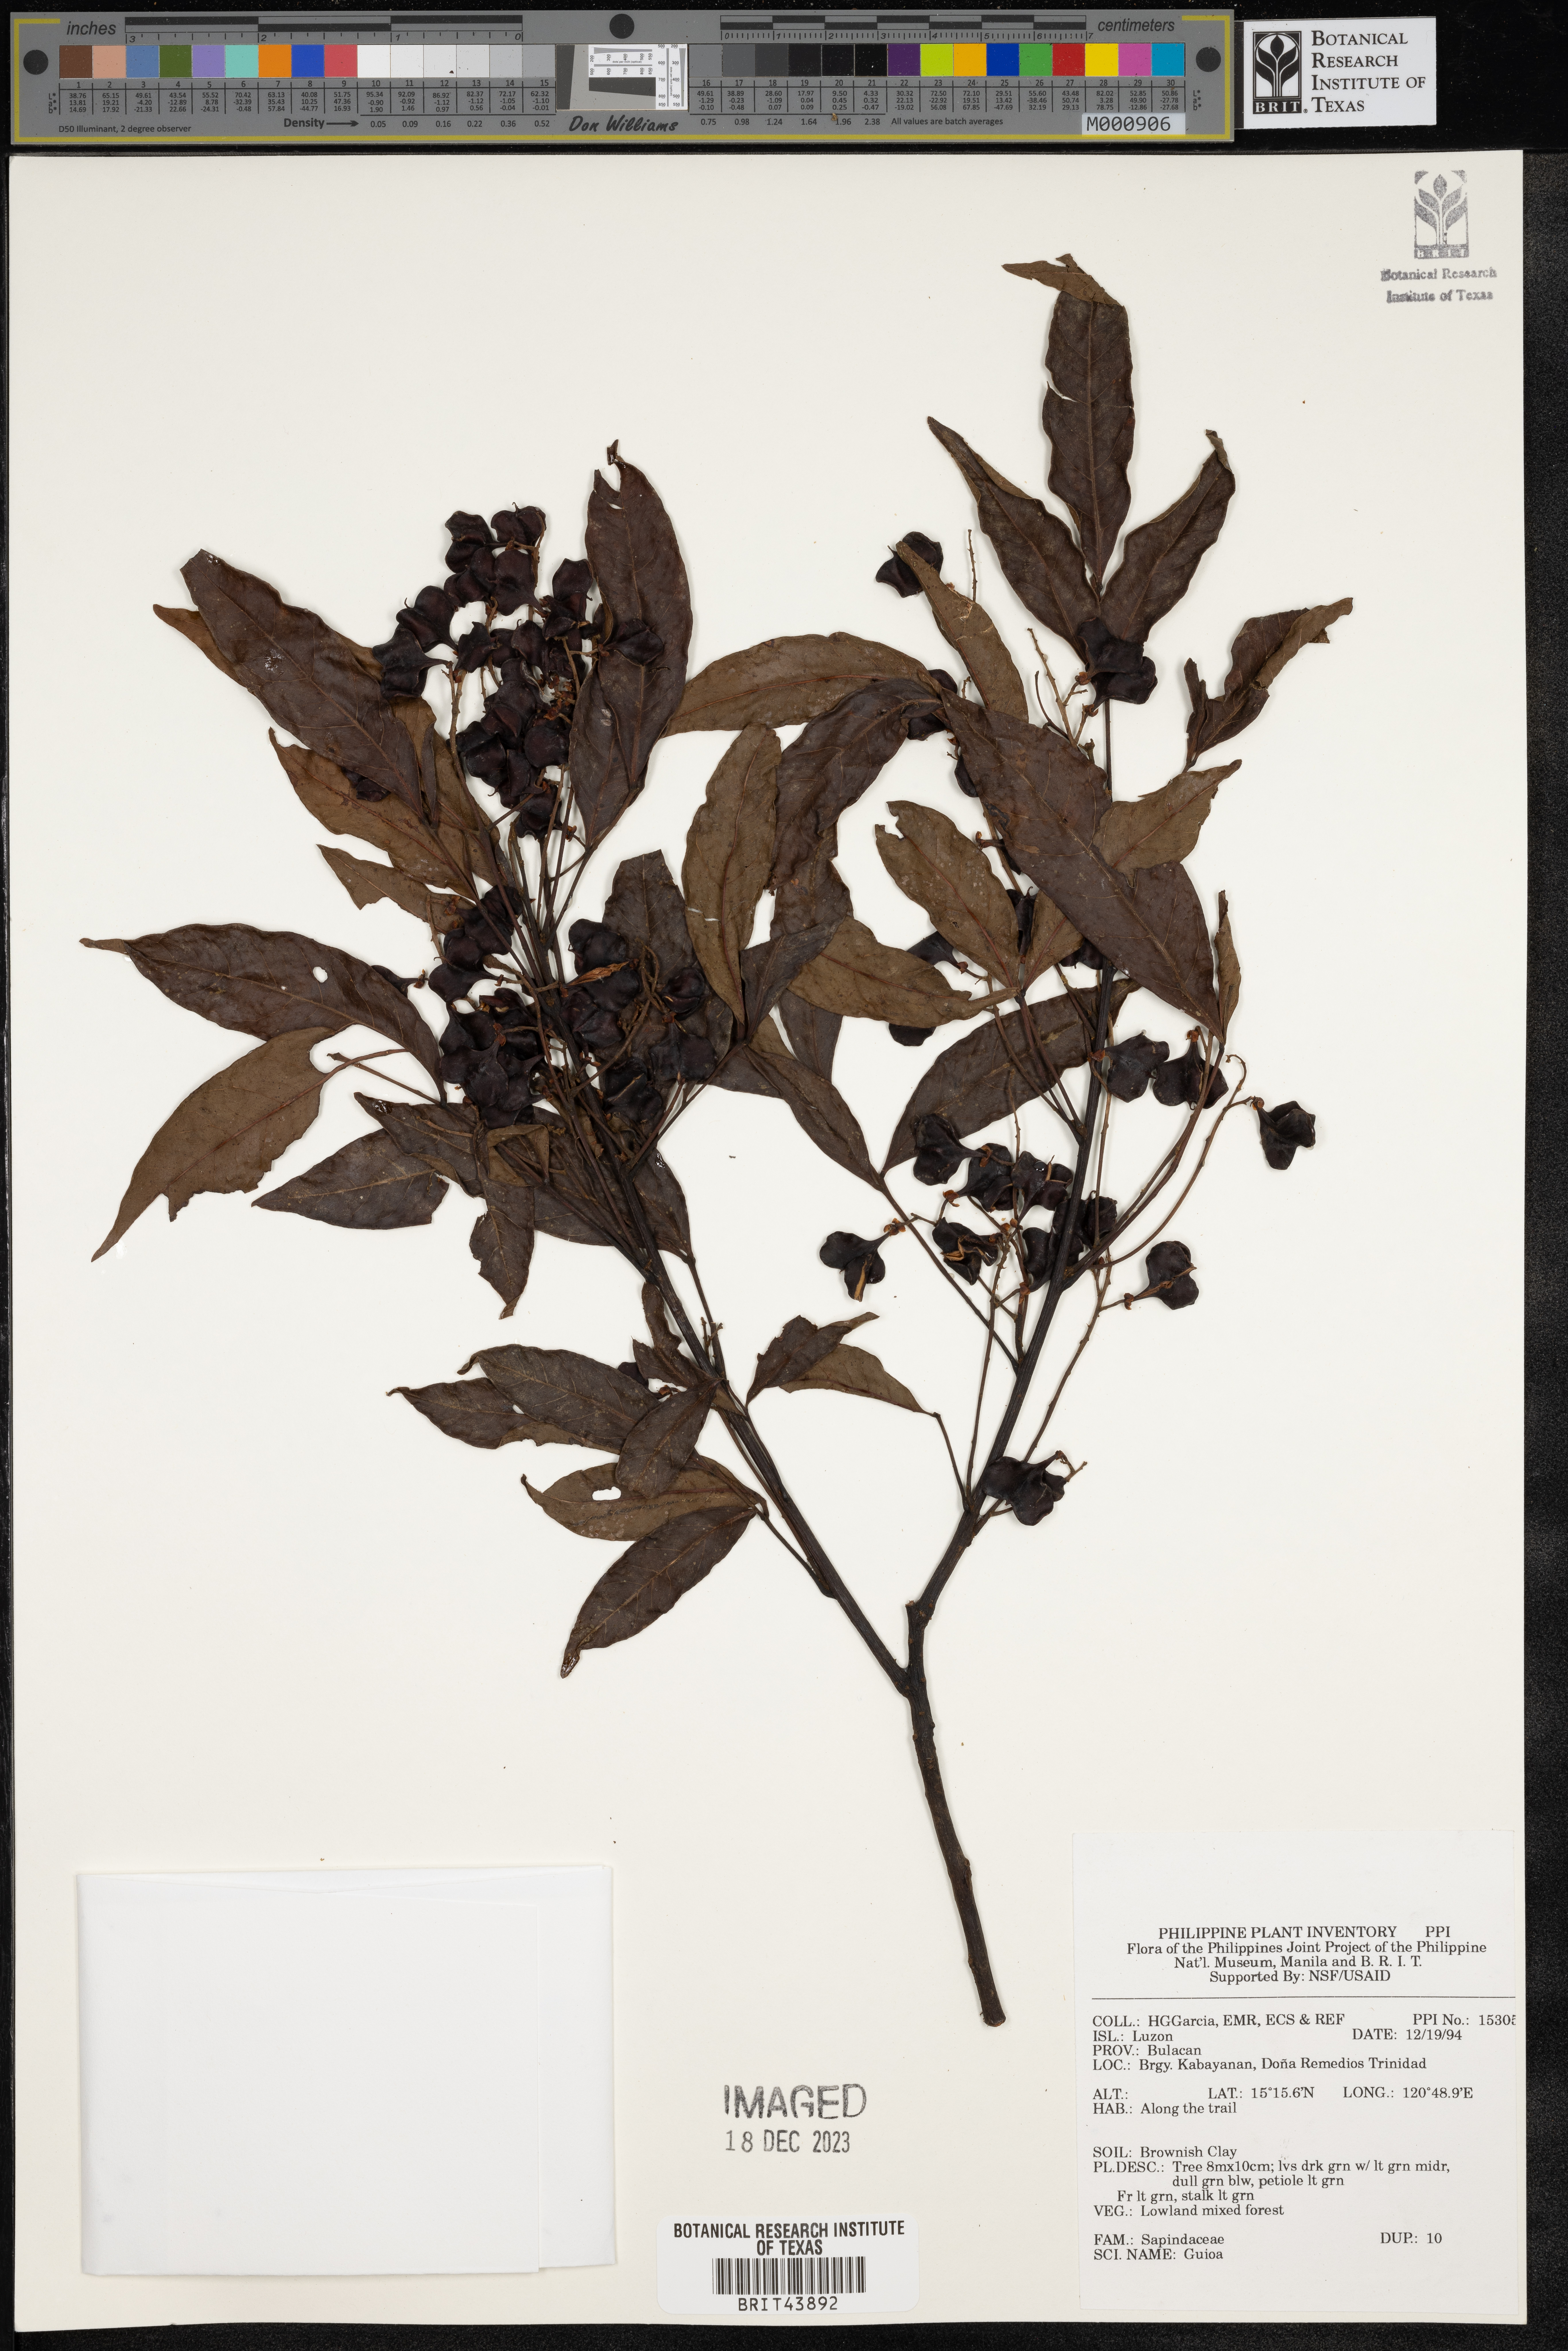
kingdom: Plantae
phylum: Tracheophyta
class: Magnoliopsida
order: Sapindales
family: Sapindaceae
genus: Guioa
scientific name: Guioa
